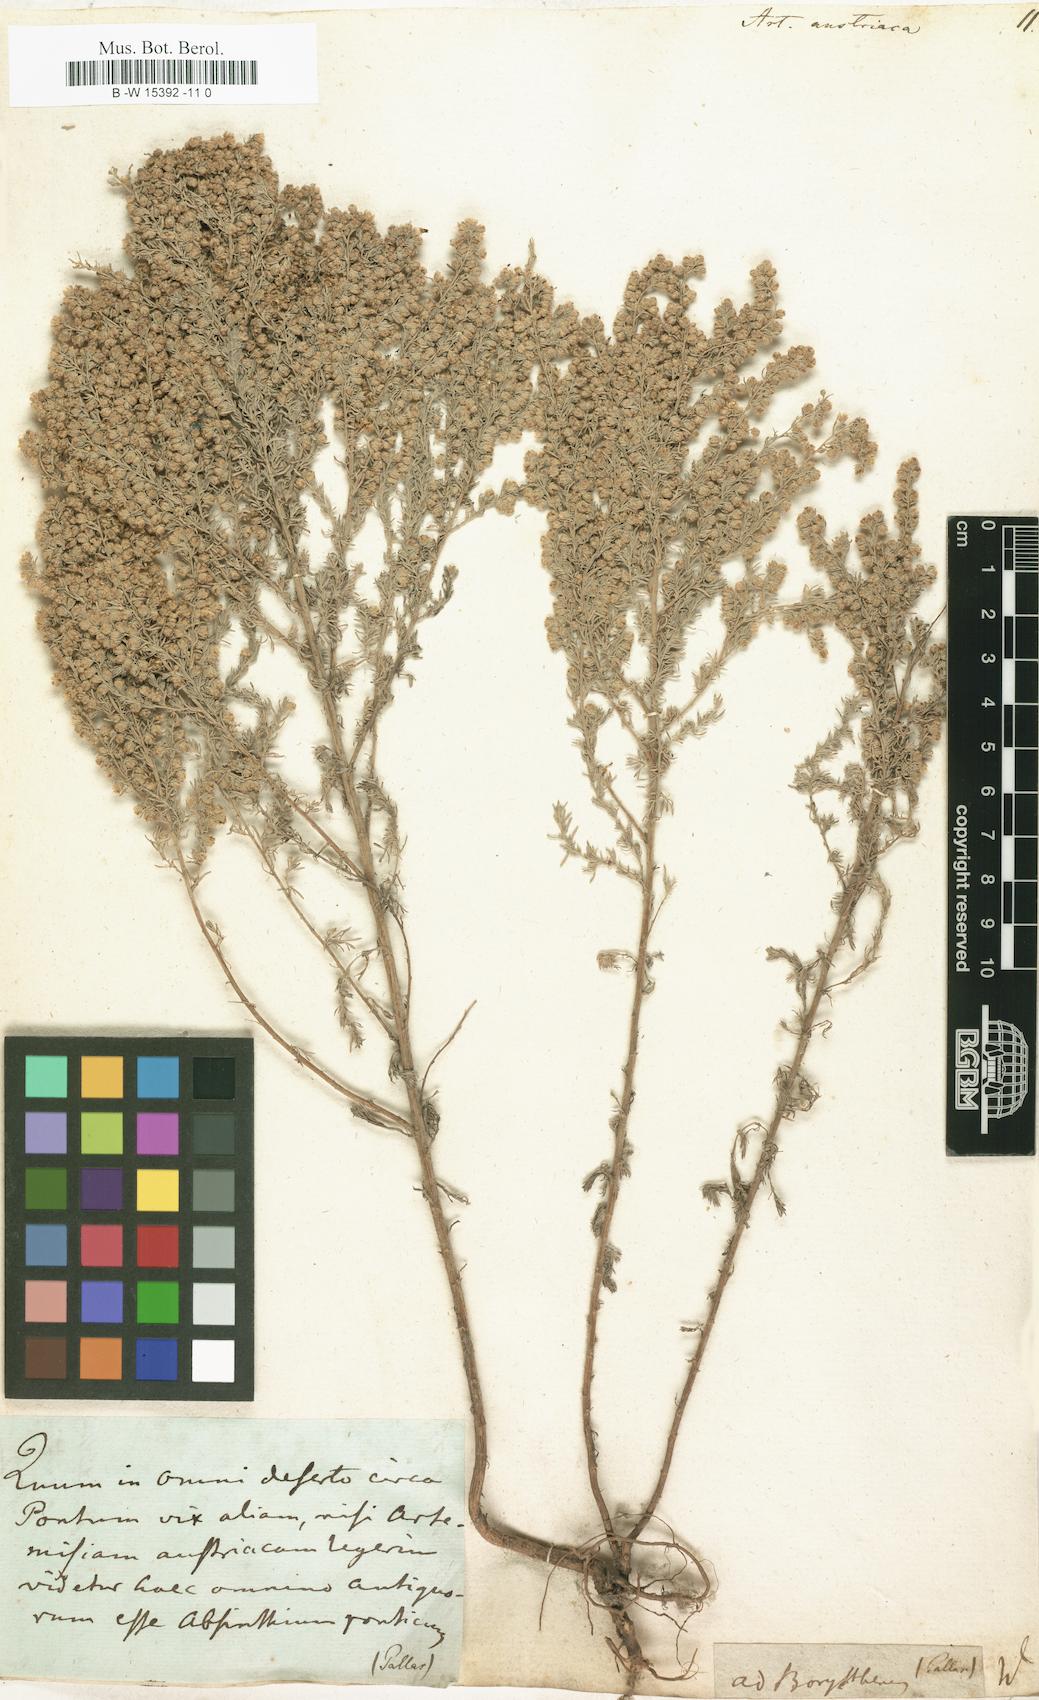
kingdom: Plantae
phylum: Tracheophyta
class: Magnoliopsida
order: Asterales
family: Asteraceae
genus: Artemisia
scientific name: Artemisia austriaca
